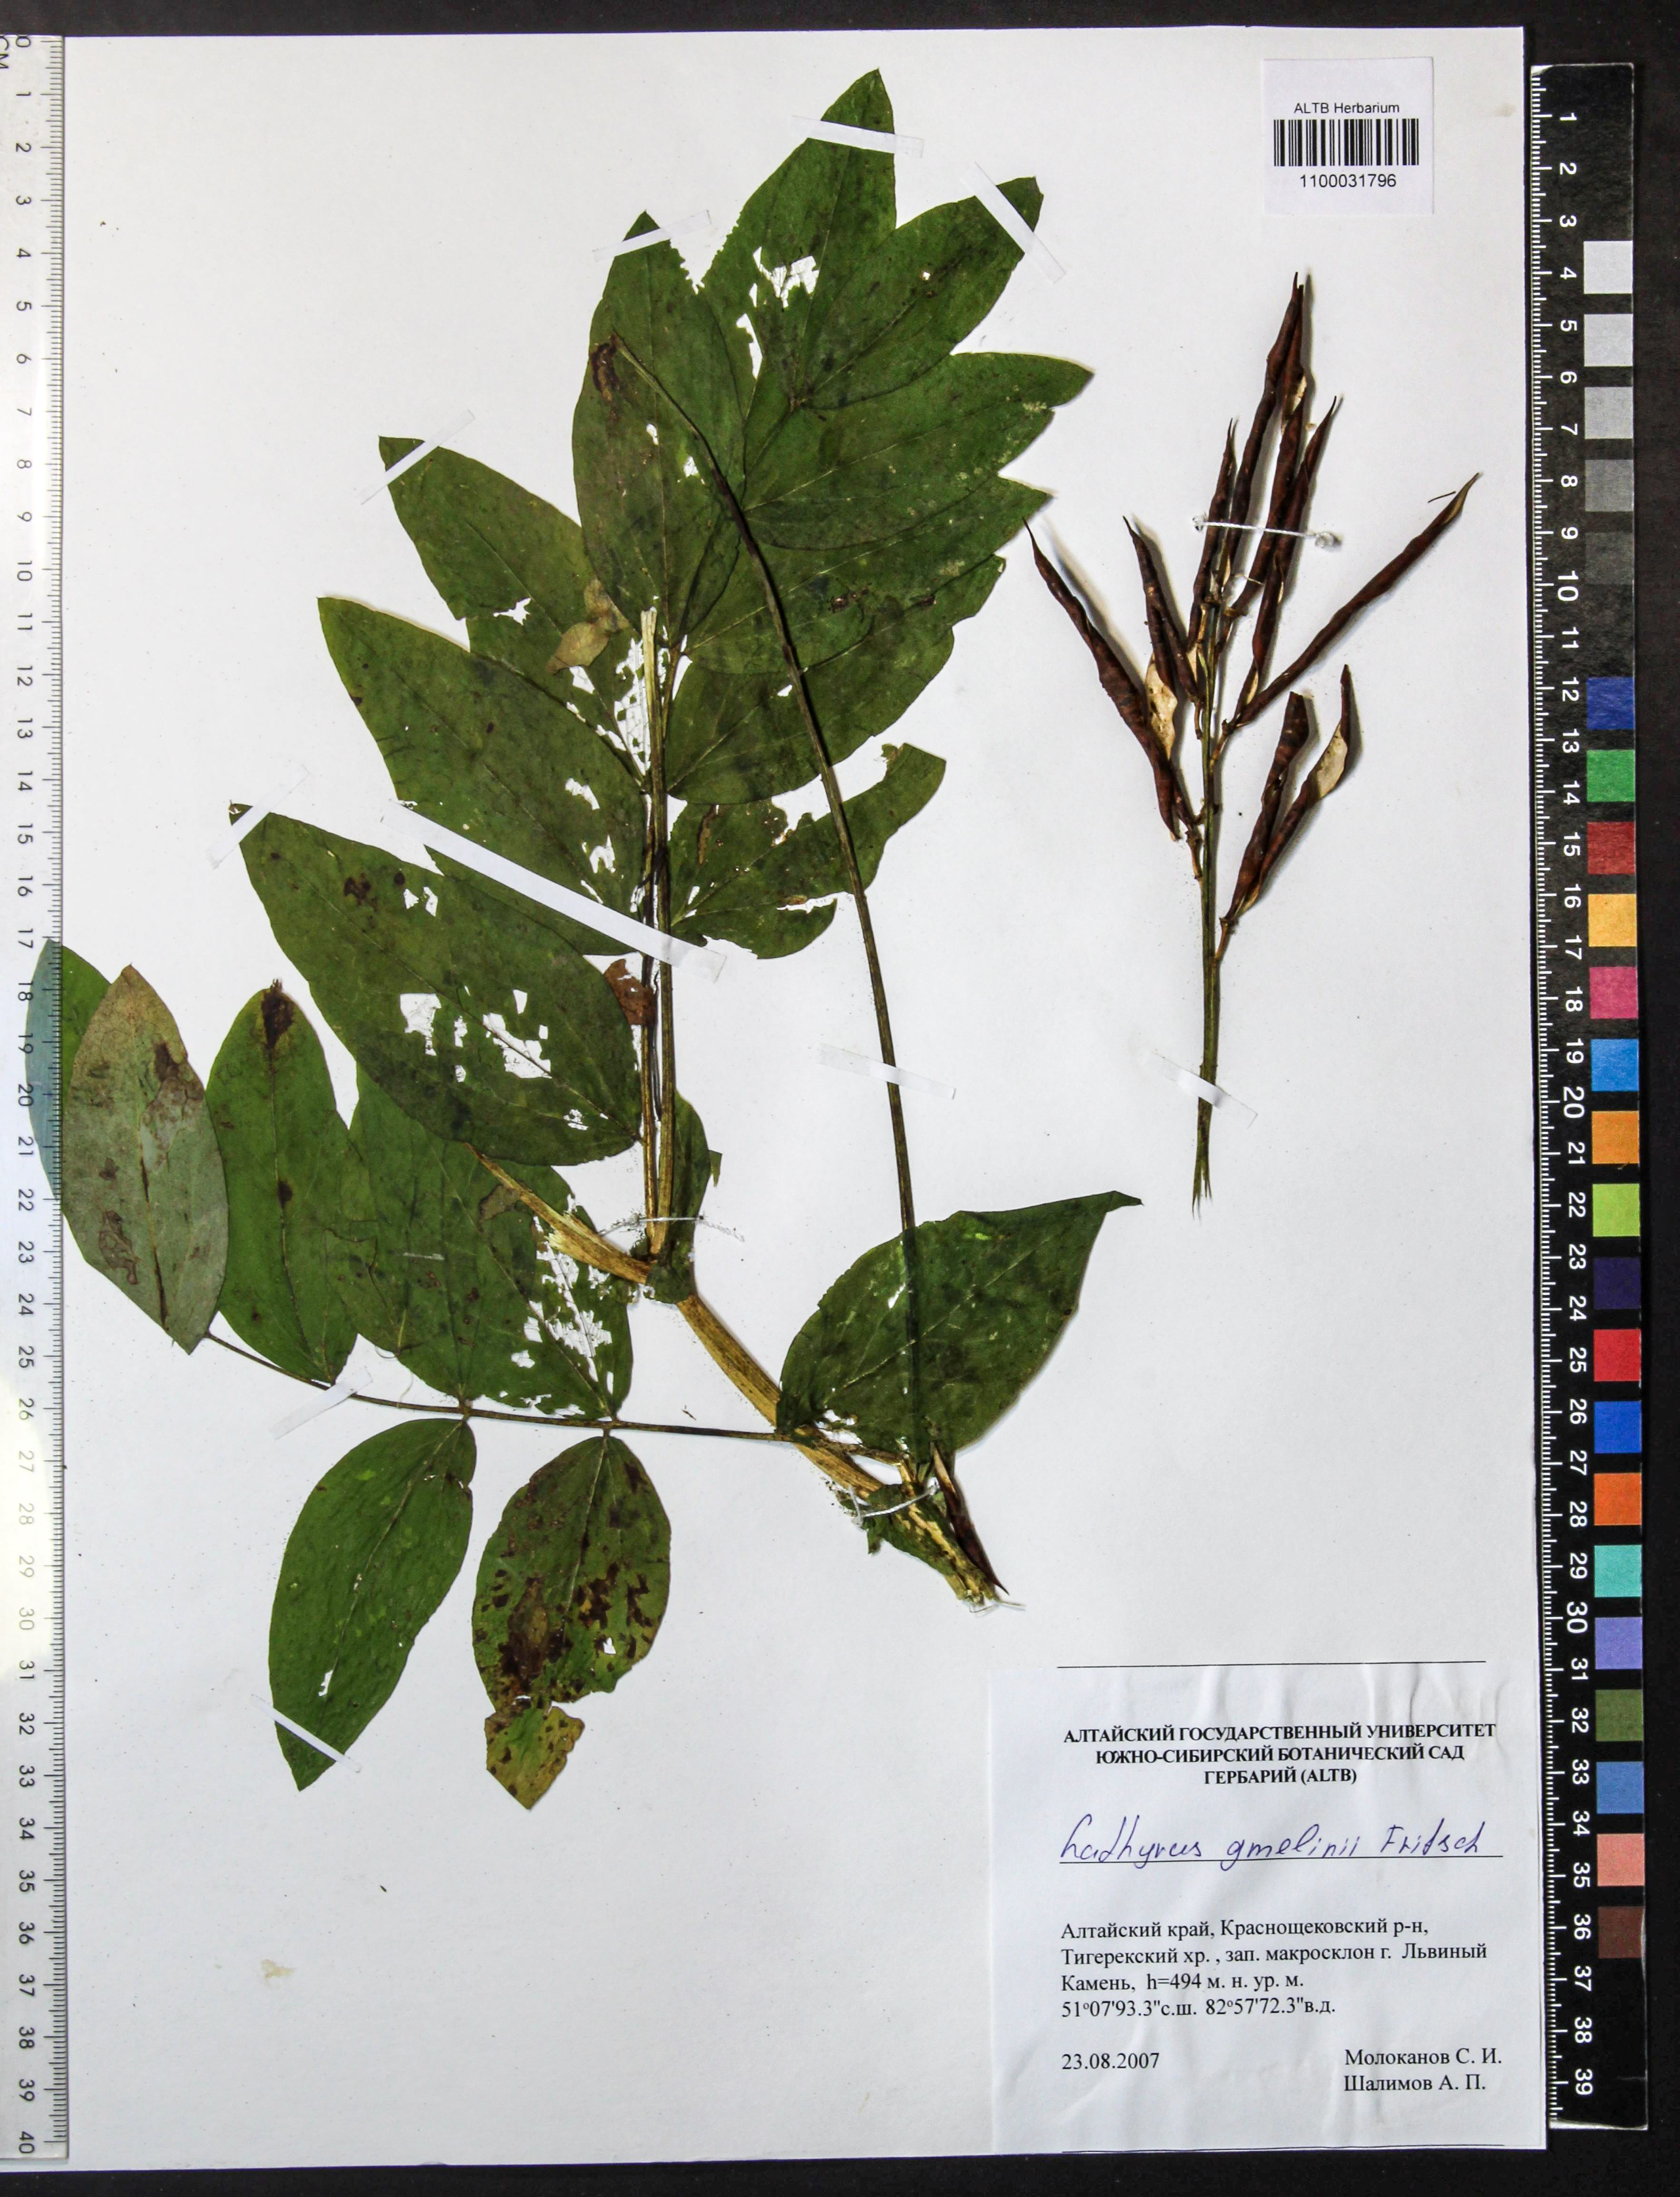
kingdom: Plantae
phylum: Tracheophyta
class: Magnoliopsida
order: Fabales
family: Fabaceae
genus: Lathyrus
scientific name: Lathyrus gmelinii
